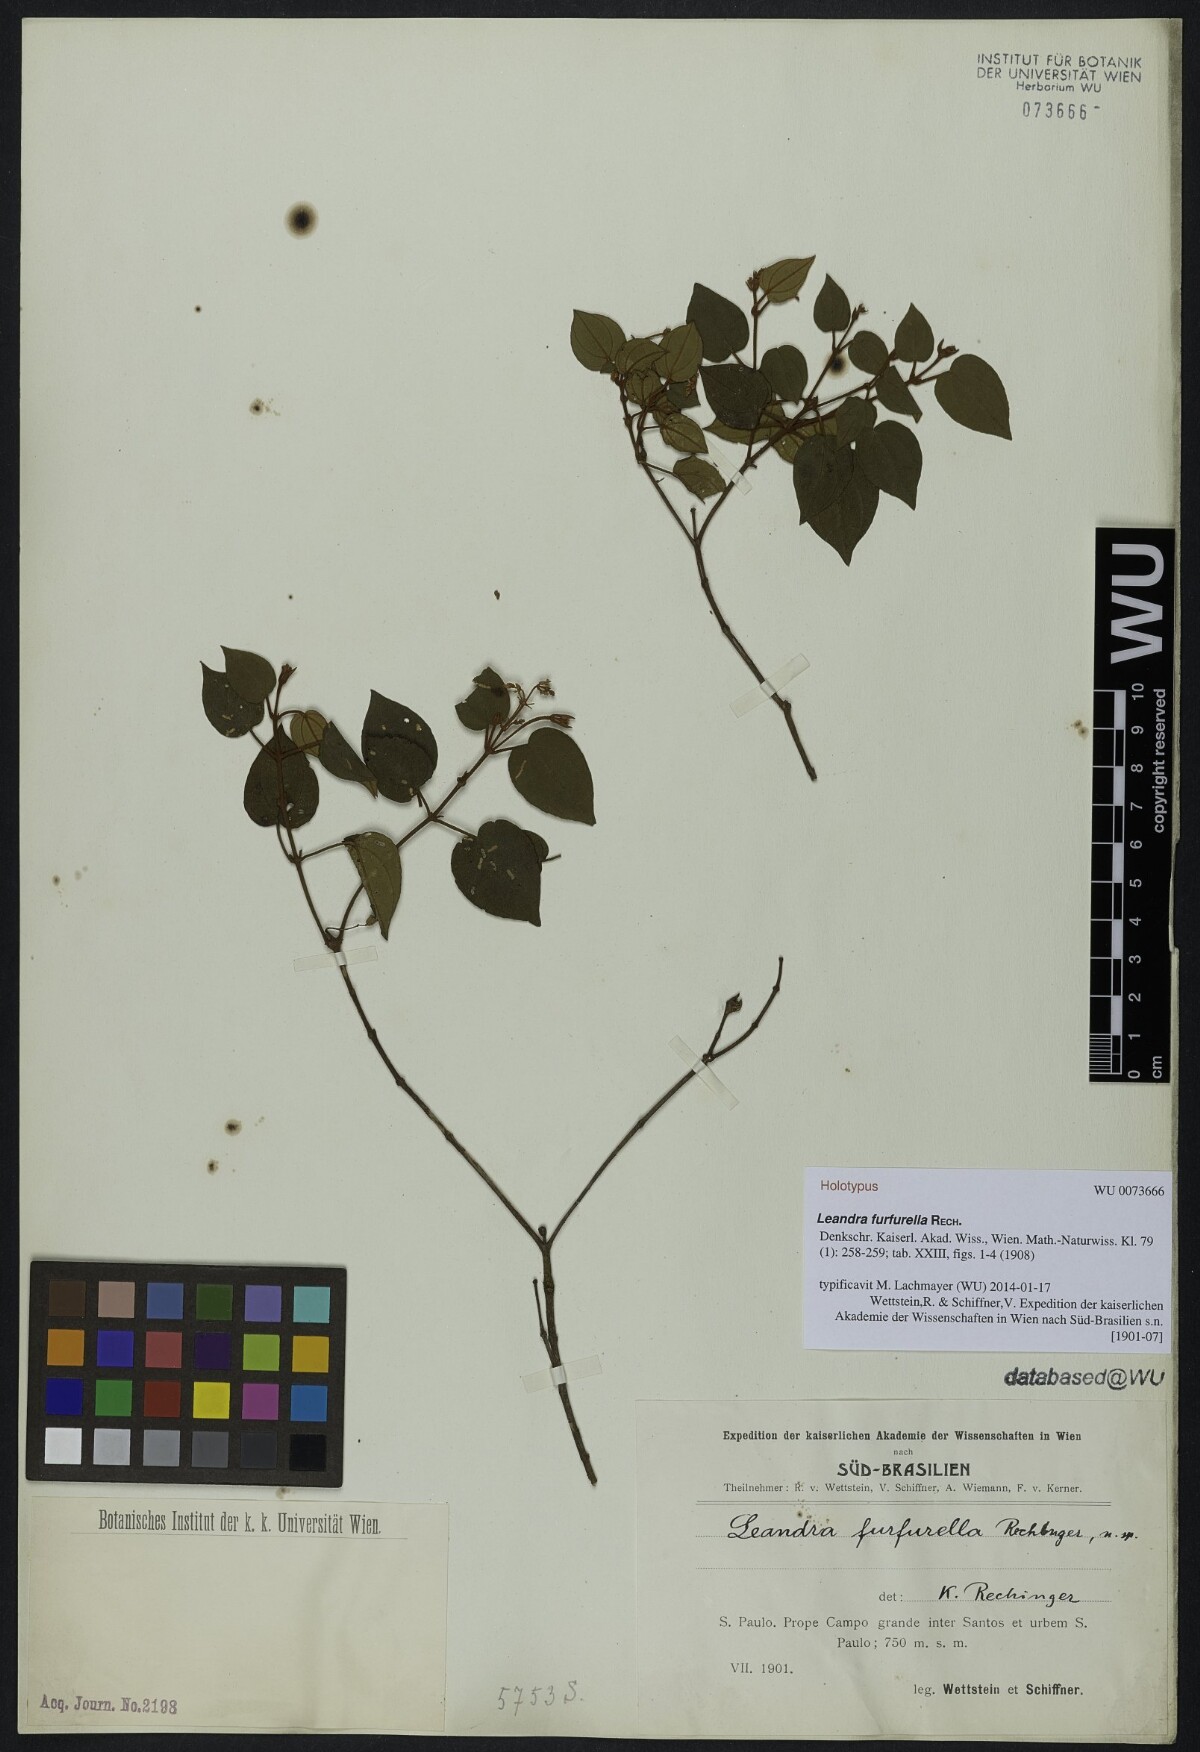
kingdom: Plantae
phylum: Tracheophyta
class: Magnoliopsida
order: Myrtales
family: Melastomataceae
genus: Miconia
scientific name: Miconia cordigera
